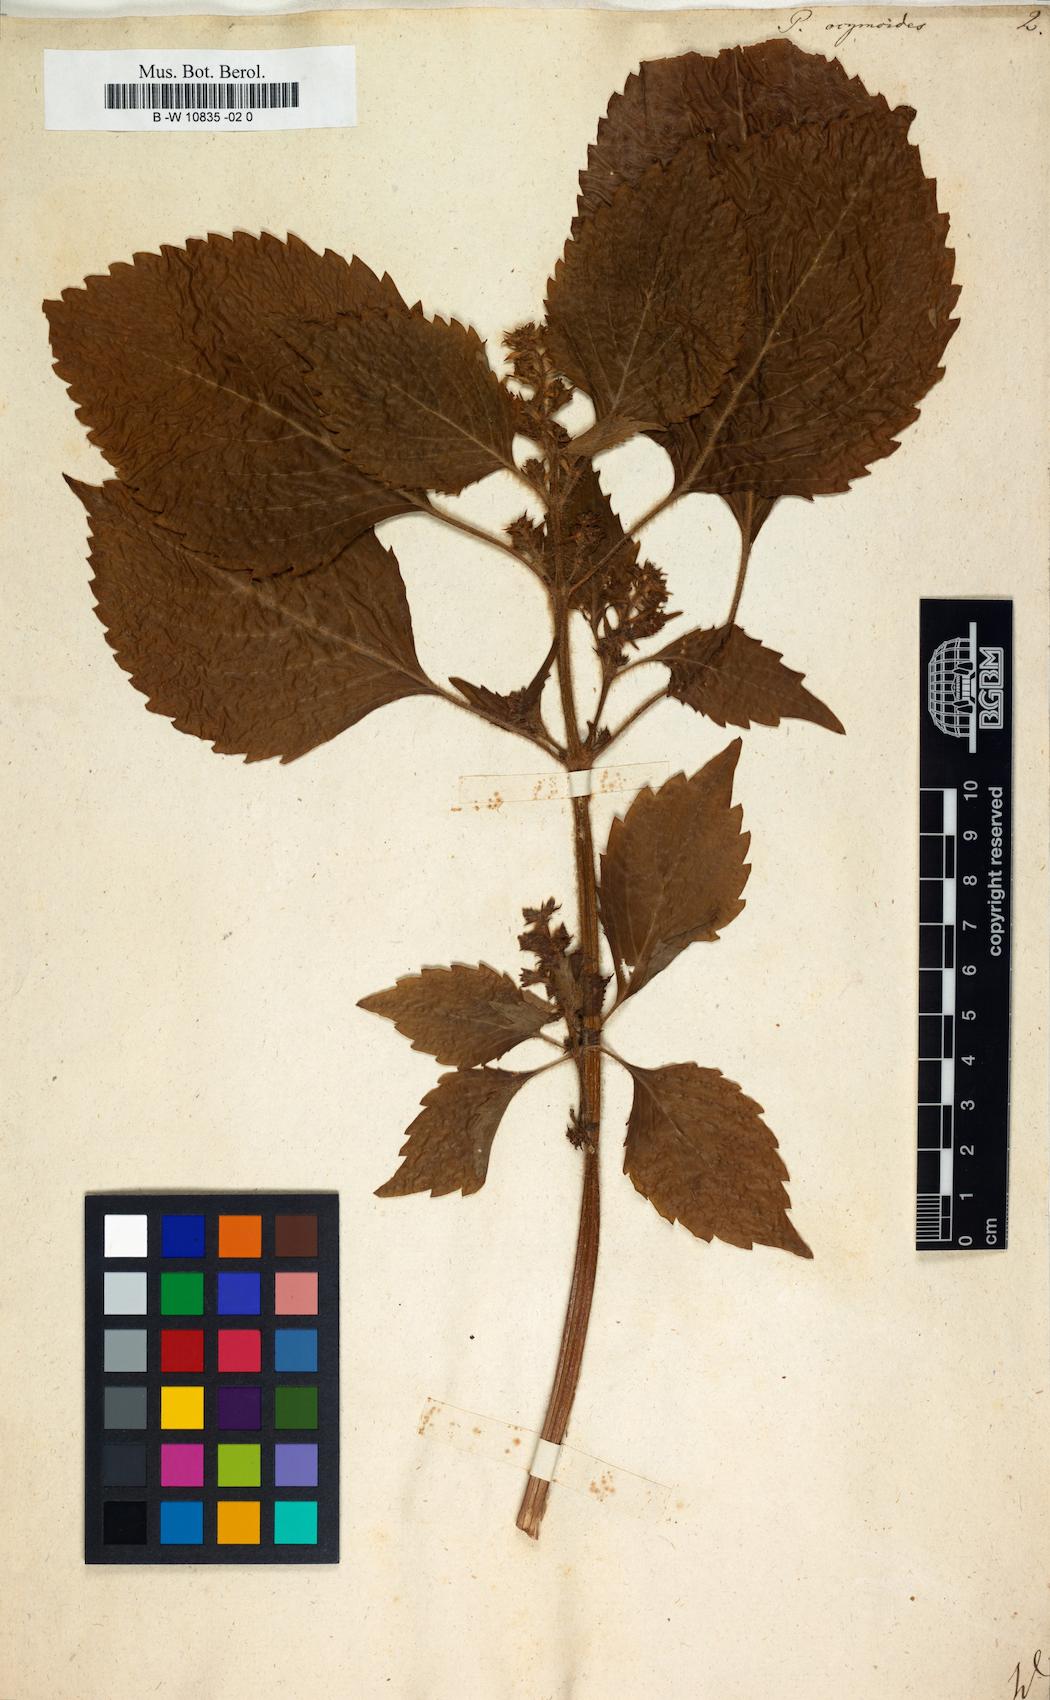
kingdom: Plantae
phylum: Tracheophyta
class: Magnoliopsida
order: Lamiales
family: Lamiaceae
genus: Perilla
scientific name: Perilla frutescens
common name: Perilla
